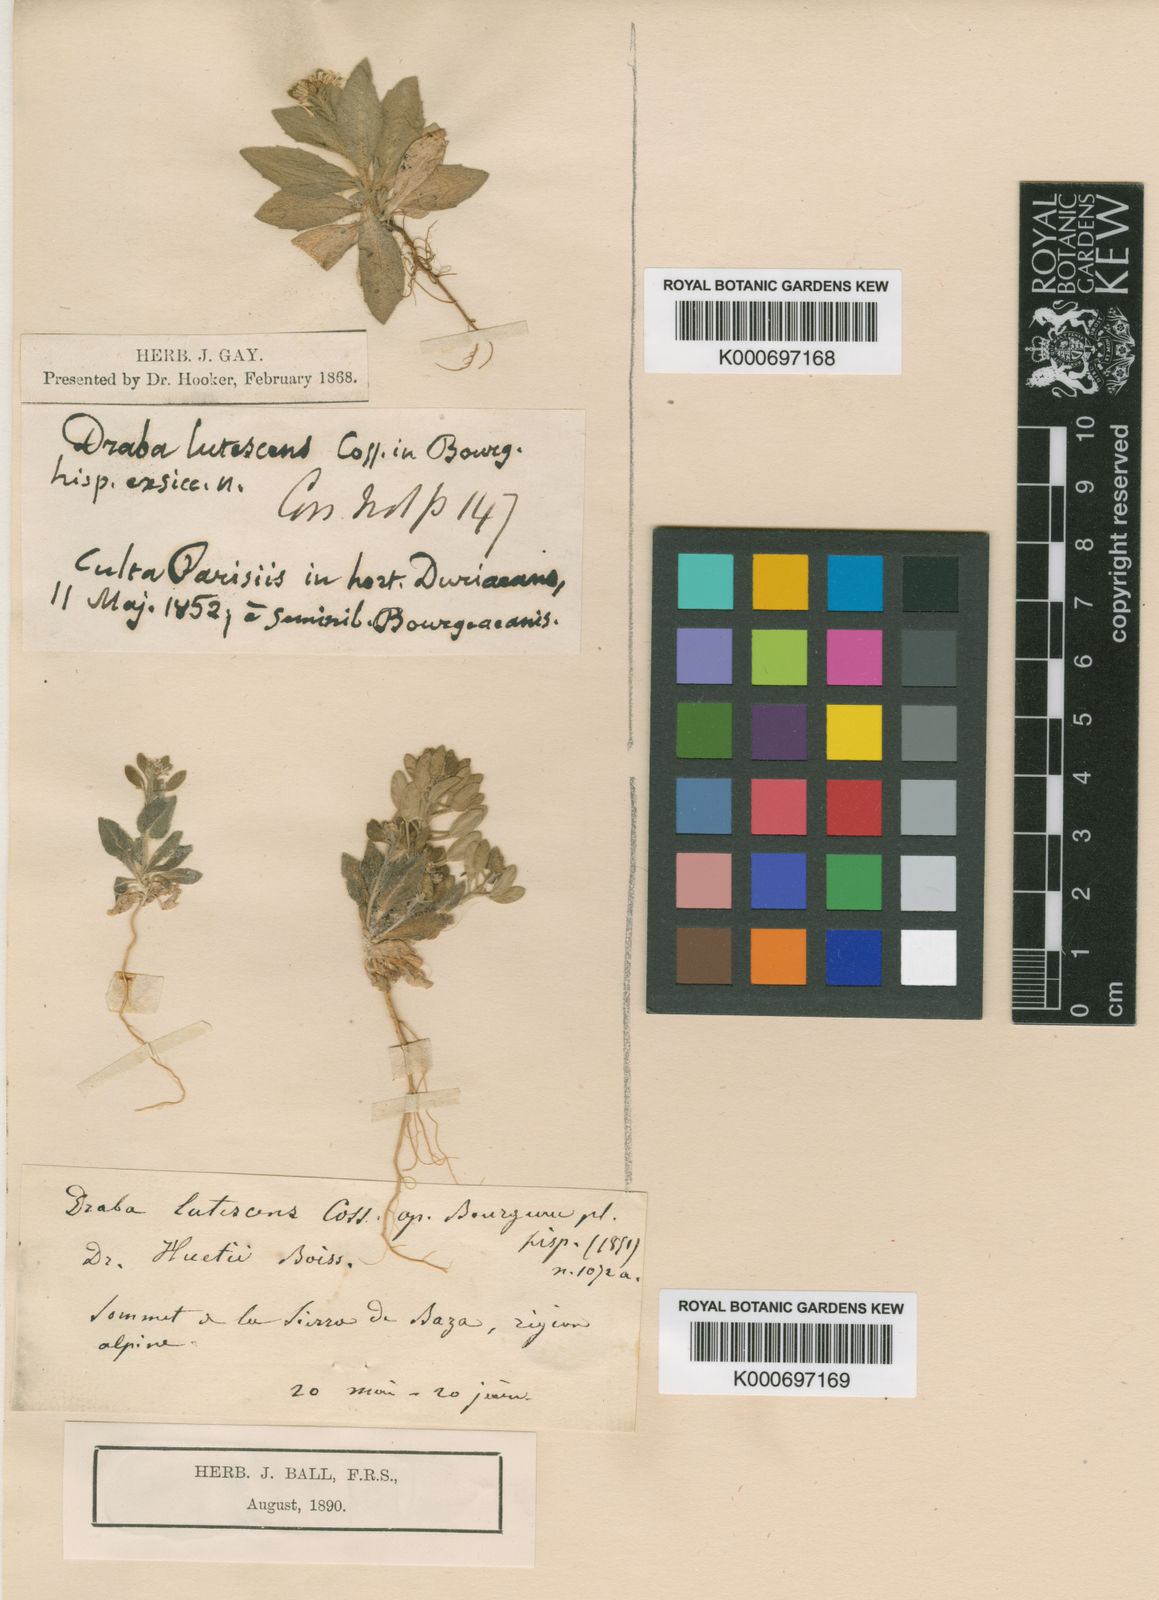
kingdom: Plantae
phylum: Tracheophyta
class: Magnoliopsida
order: Brassicales
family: Brassicaceae
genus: Draba
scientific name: Draba lutescens
